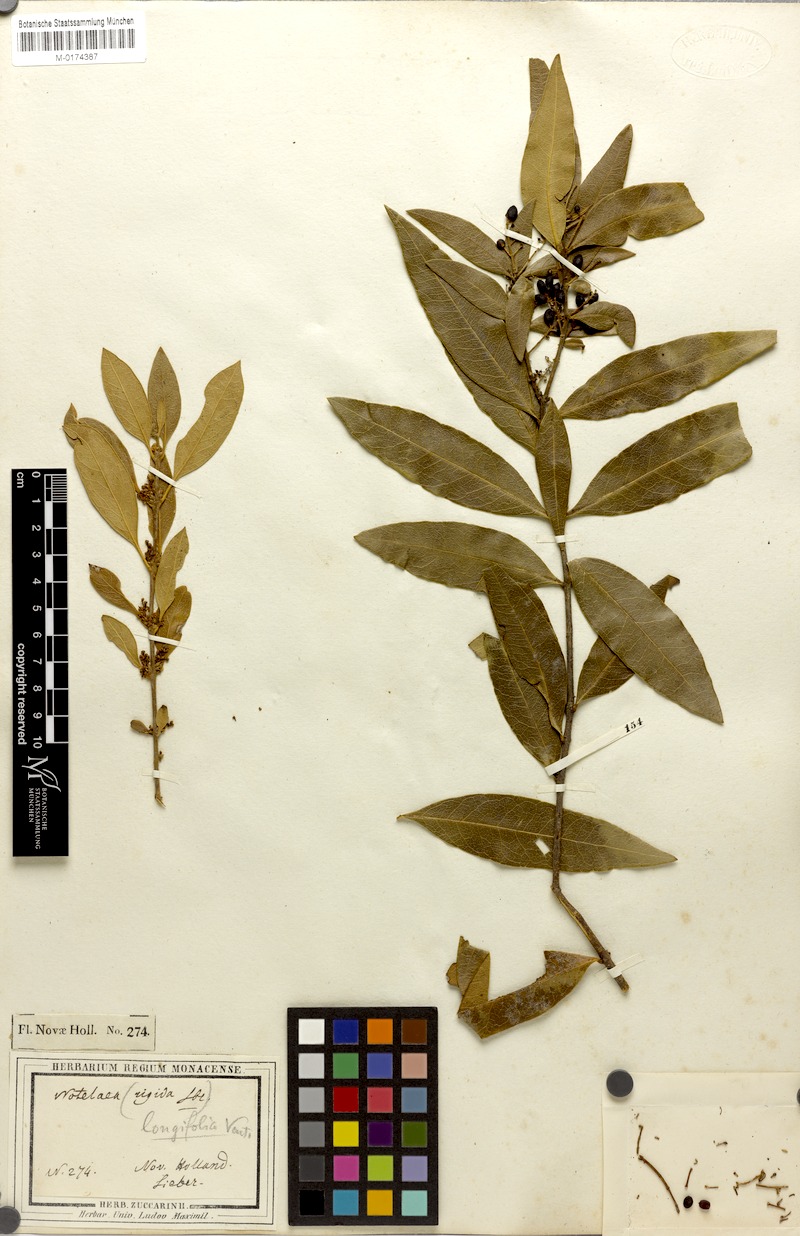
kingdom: Plantae
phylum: Tracheophyta
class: Magnoliopsida
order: Lamiales
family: Oleaceae
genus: Notelaea
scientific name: Notelaea longifolia
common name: Large mock olive
